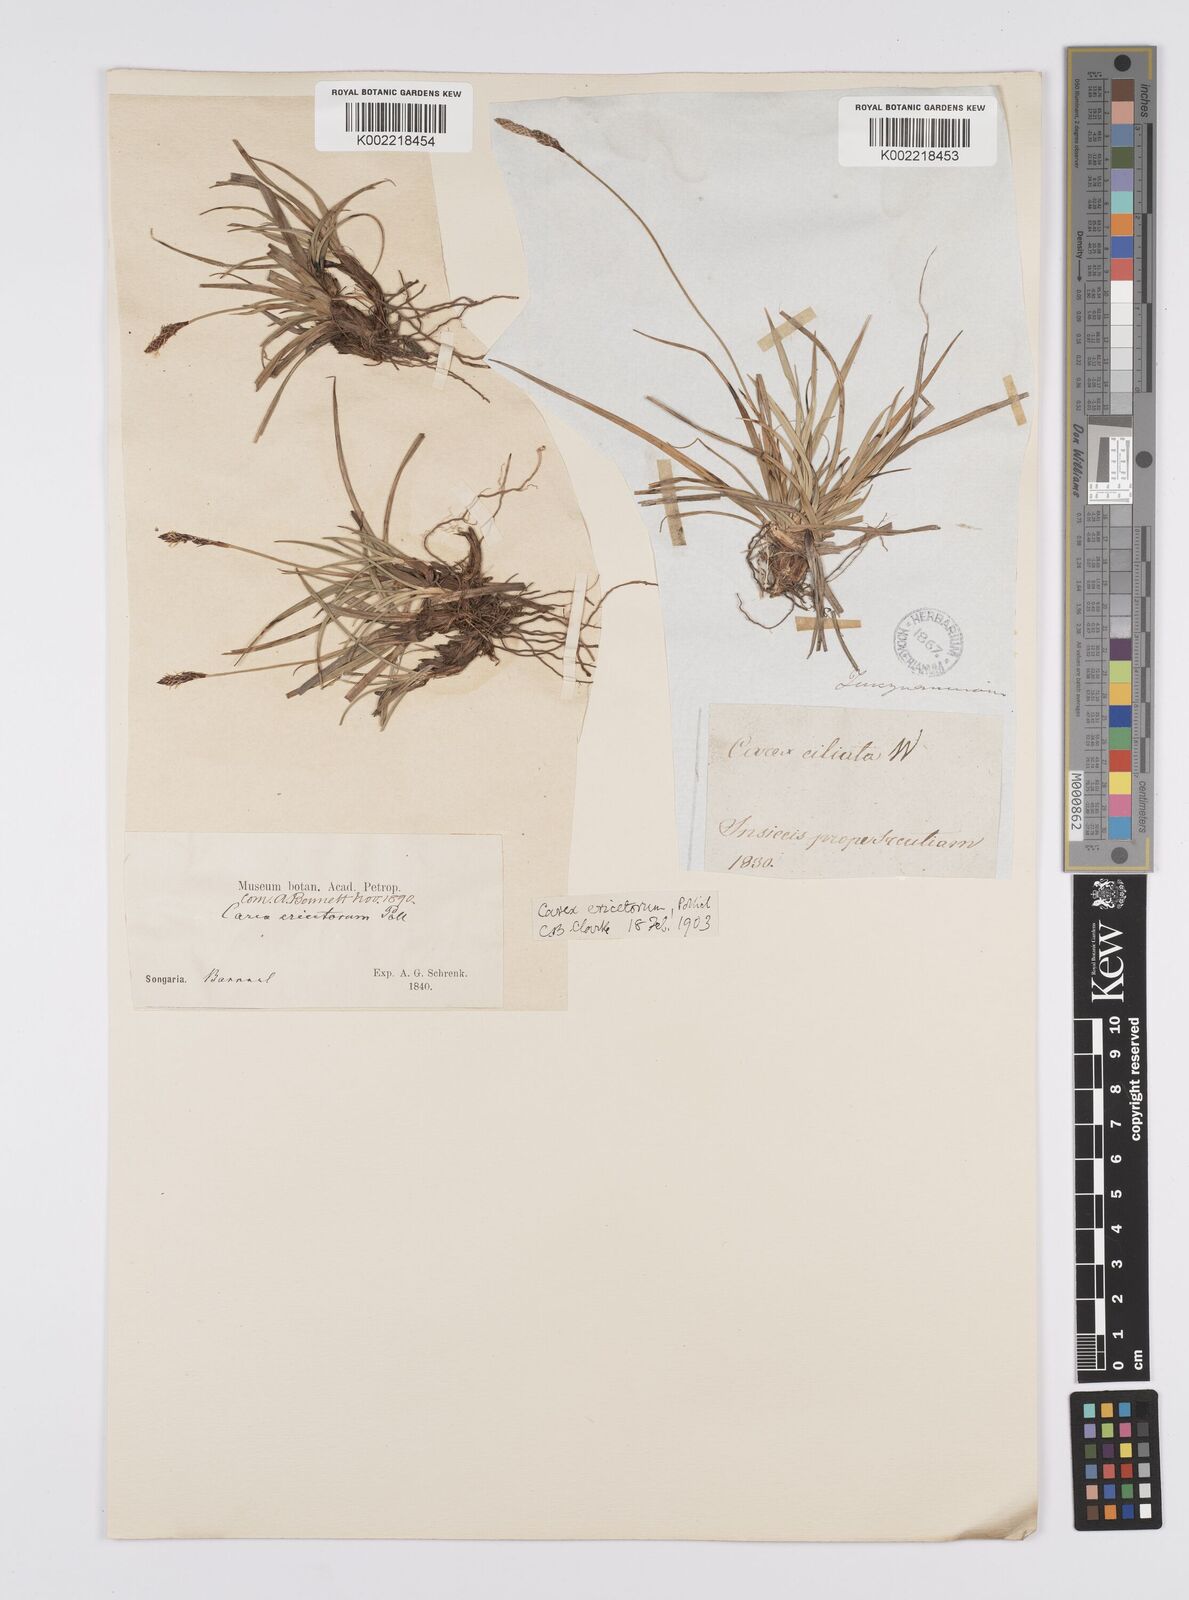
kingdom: Plantae
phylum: Tracheophyta
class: Liliopsida
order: Poales
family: Cyperaceae
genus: Carex
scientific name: Carex ericetorum
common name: Rare spring-sedge
